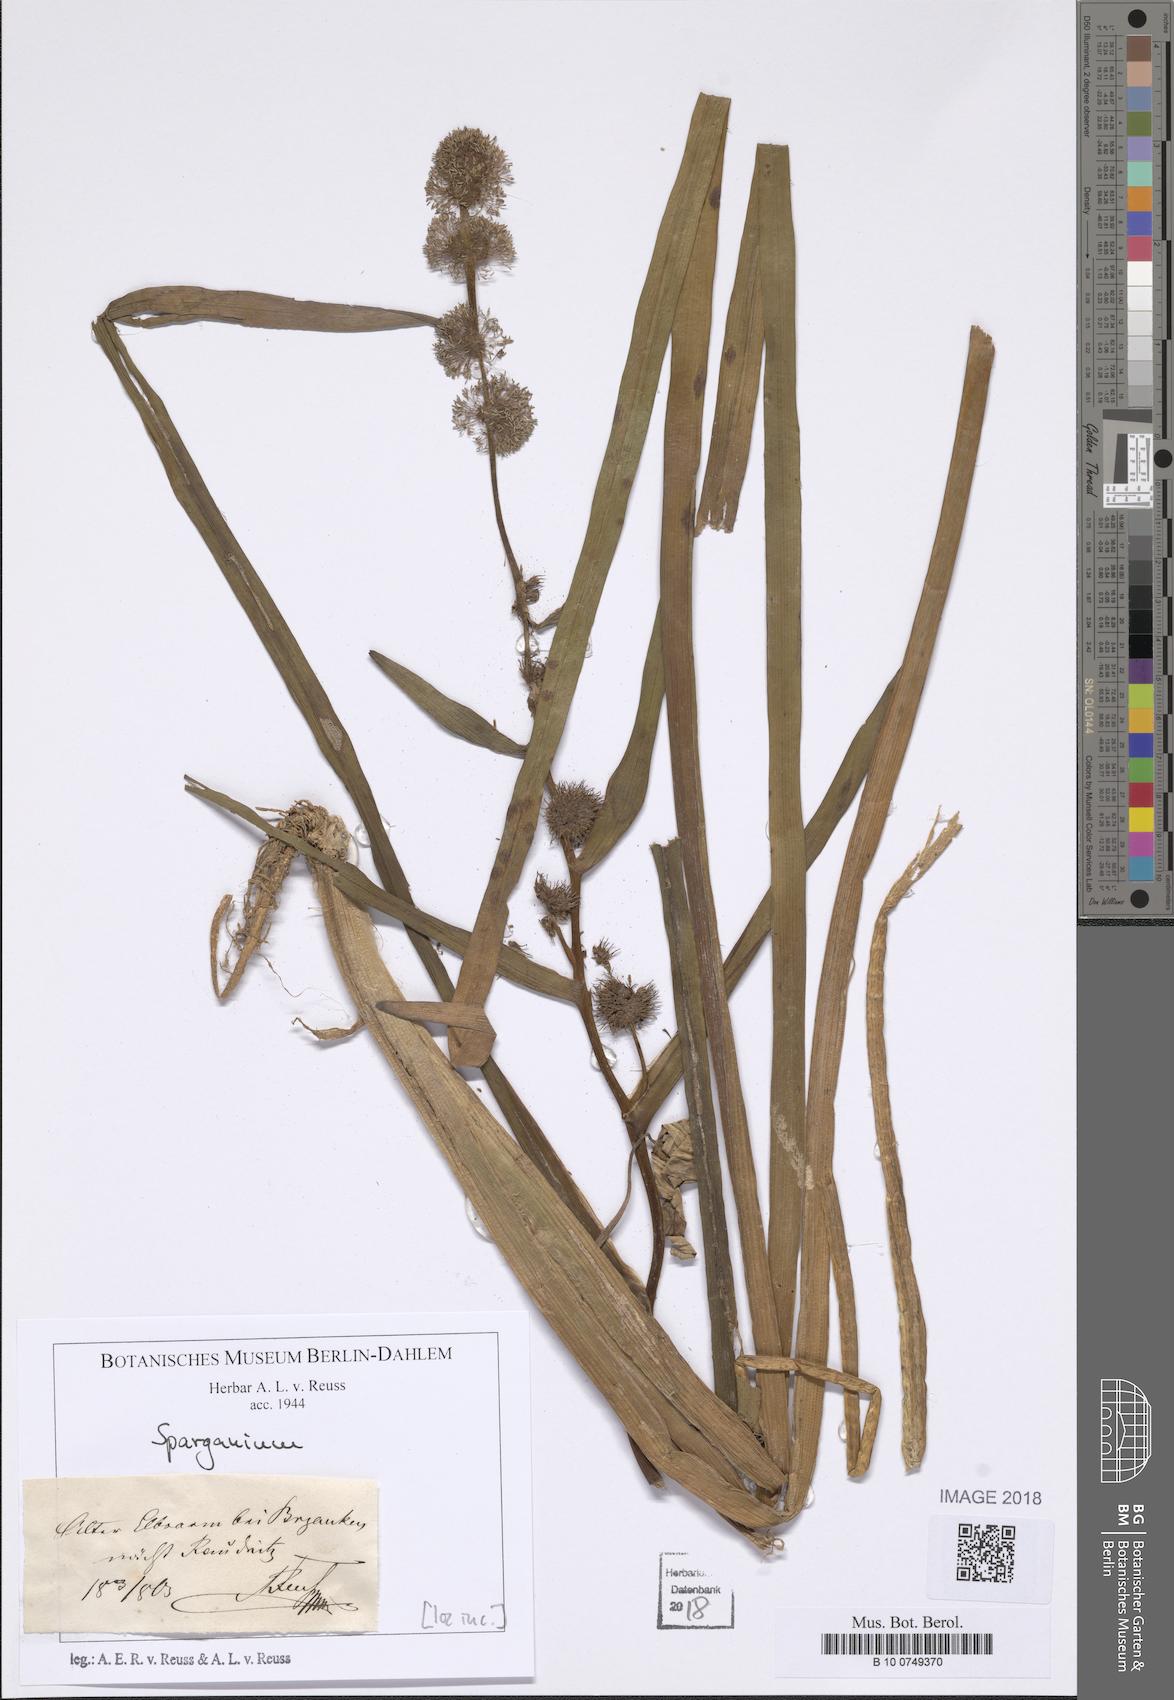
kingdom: Plantae
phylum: Tracheophyta
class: Liliopsida
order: Poales
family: Typhaceae
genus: Sparganium
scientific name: Sparganium
